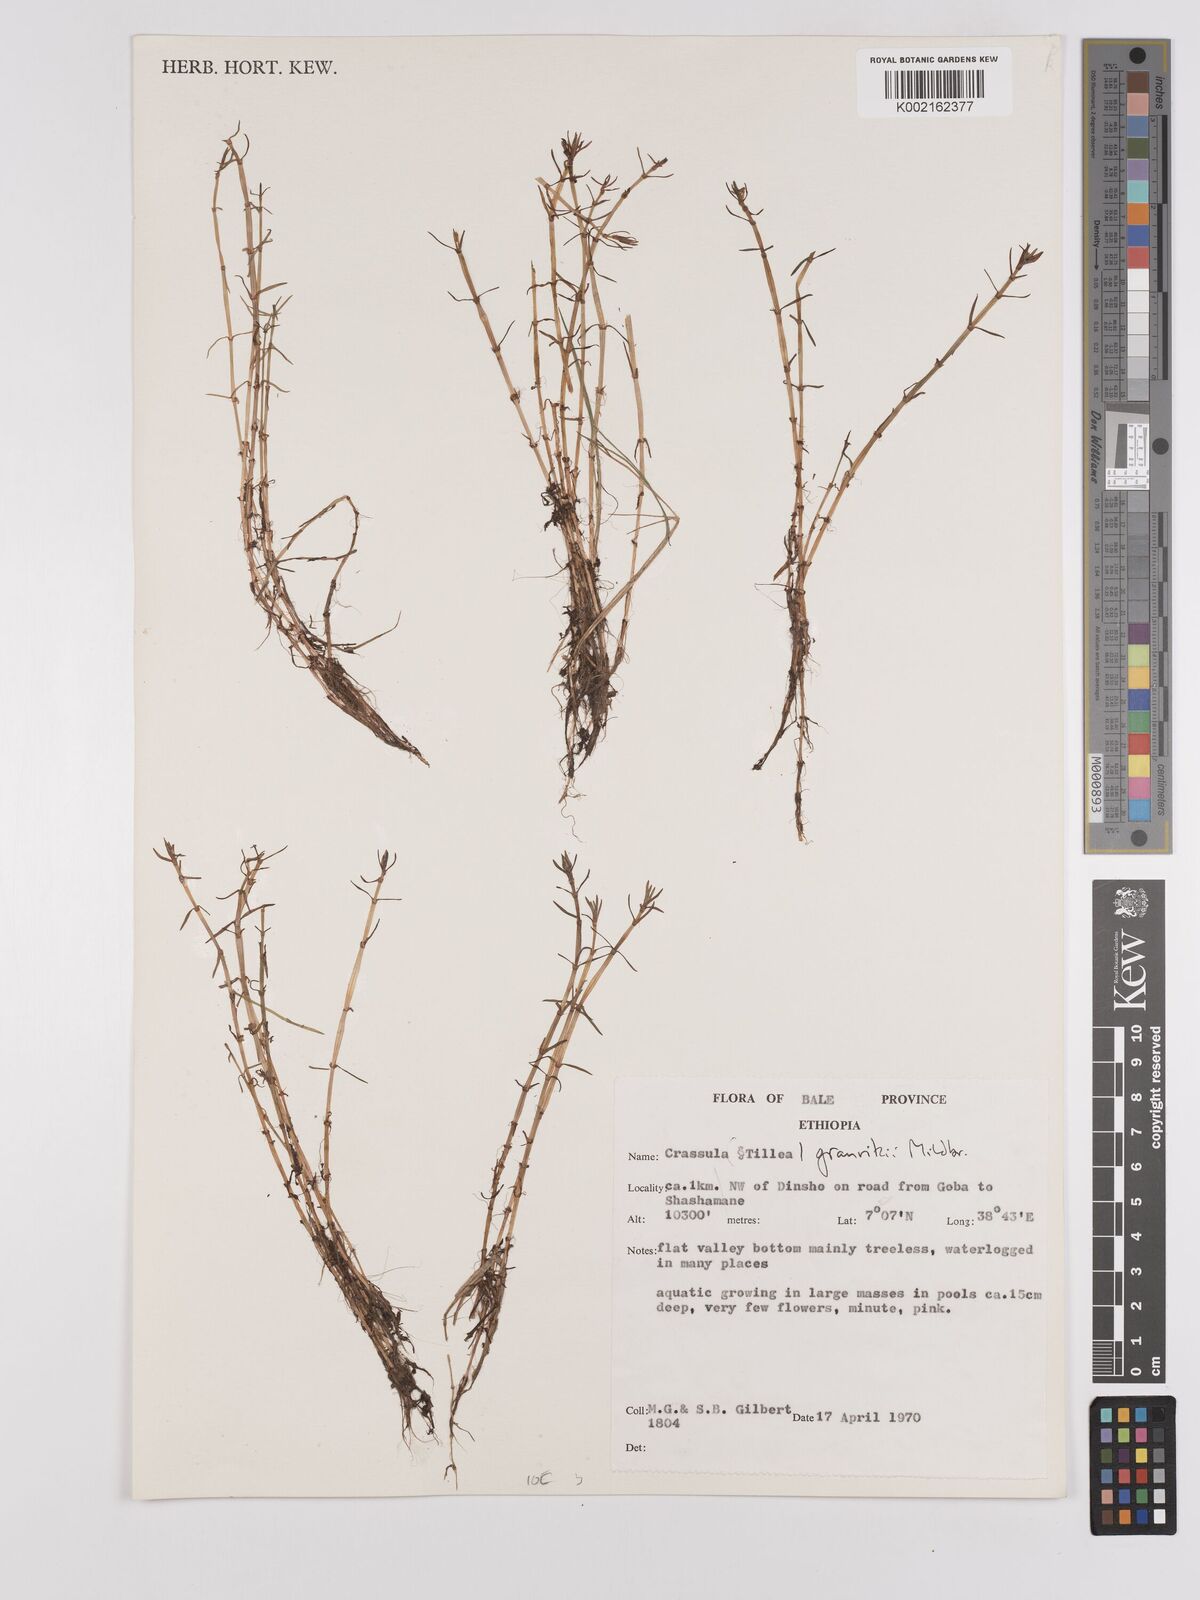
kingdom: Plantae
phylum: Tracheophyta
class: Magnoliopsida
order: Saxifragales
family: Crassulaceae
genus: Crassula
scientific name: Crassula
